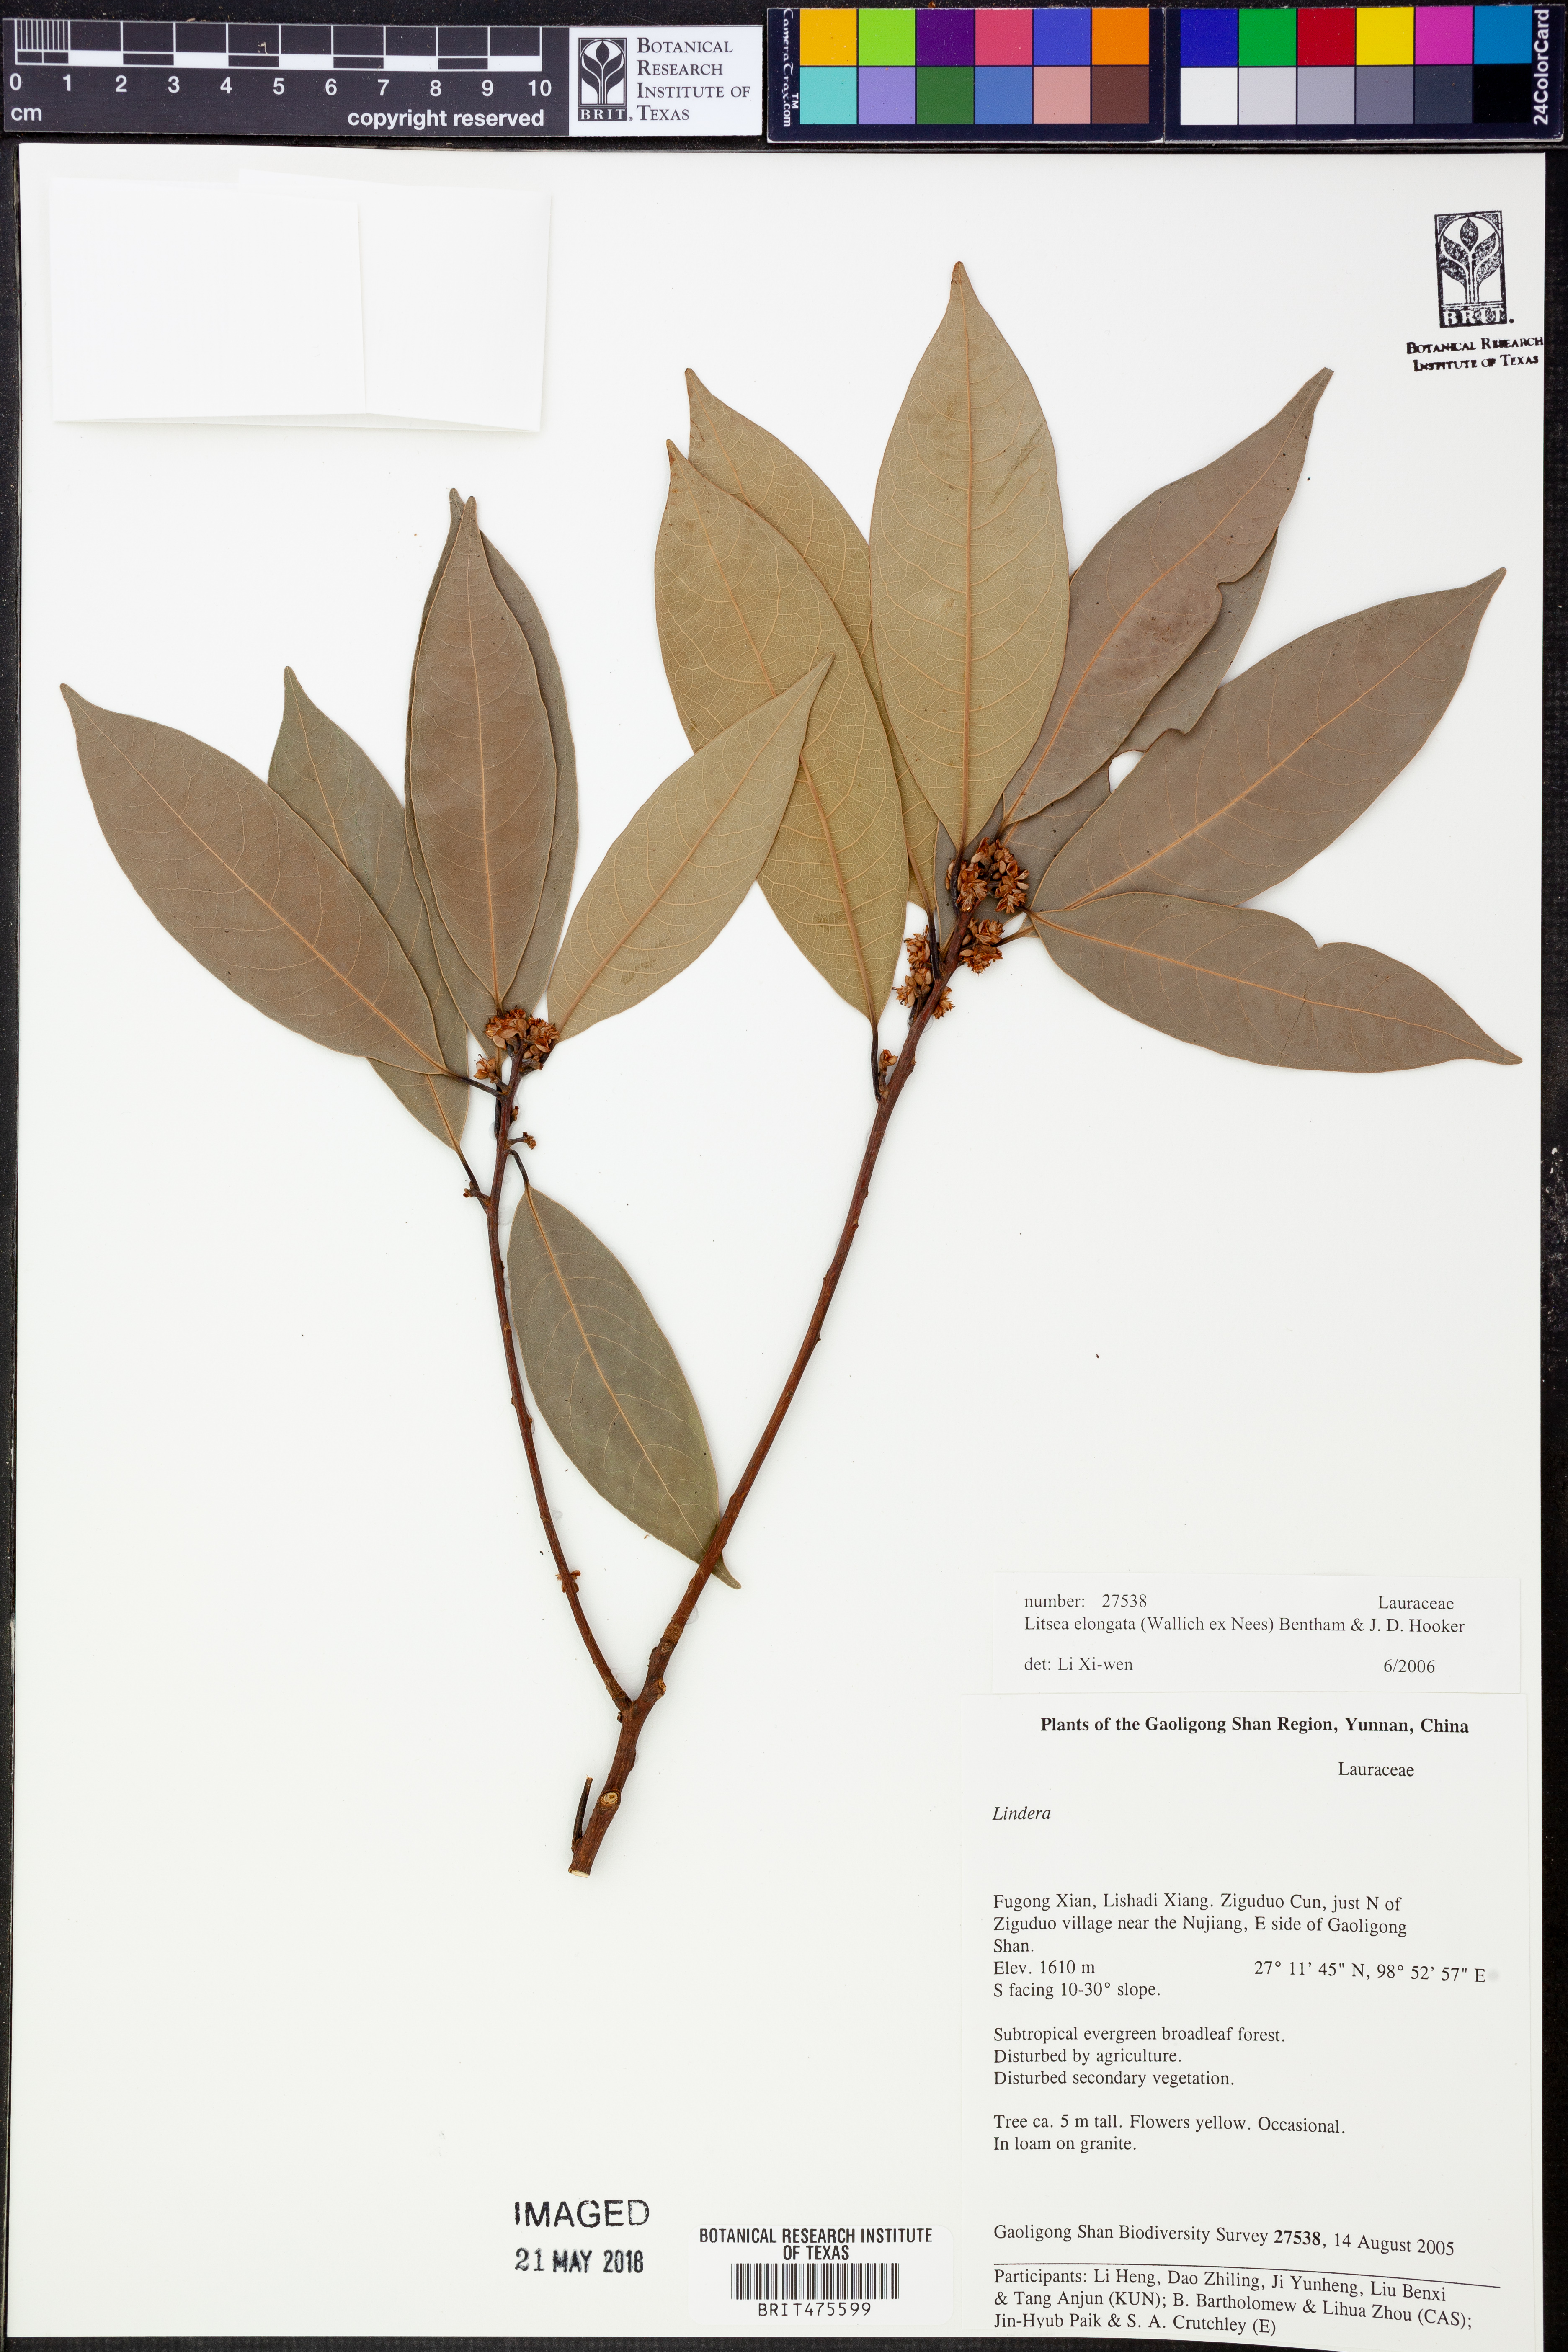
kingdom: Plantae
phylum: Tracheophyta
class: Magnoliopsida
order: Laurales
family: Lauraceae
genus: Litsea
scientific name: Litsea elongata
